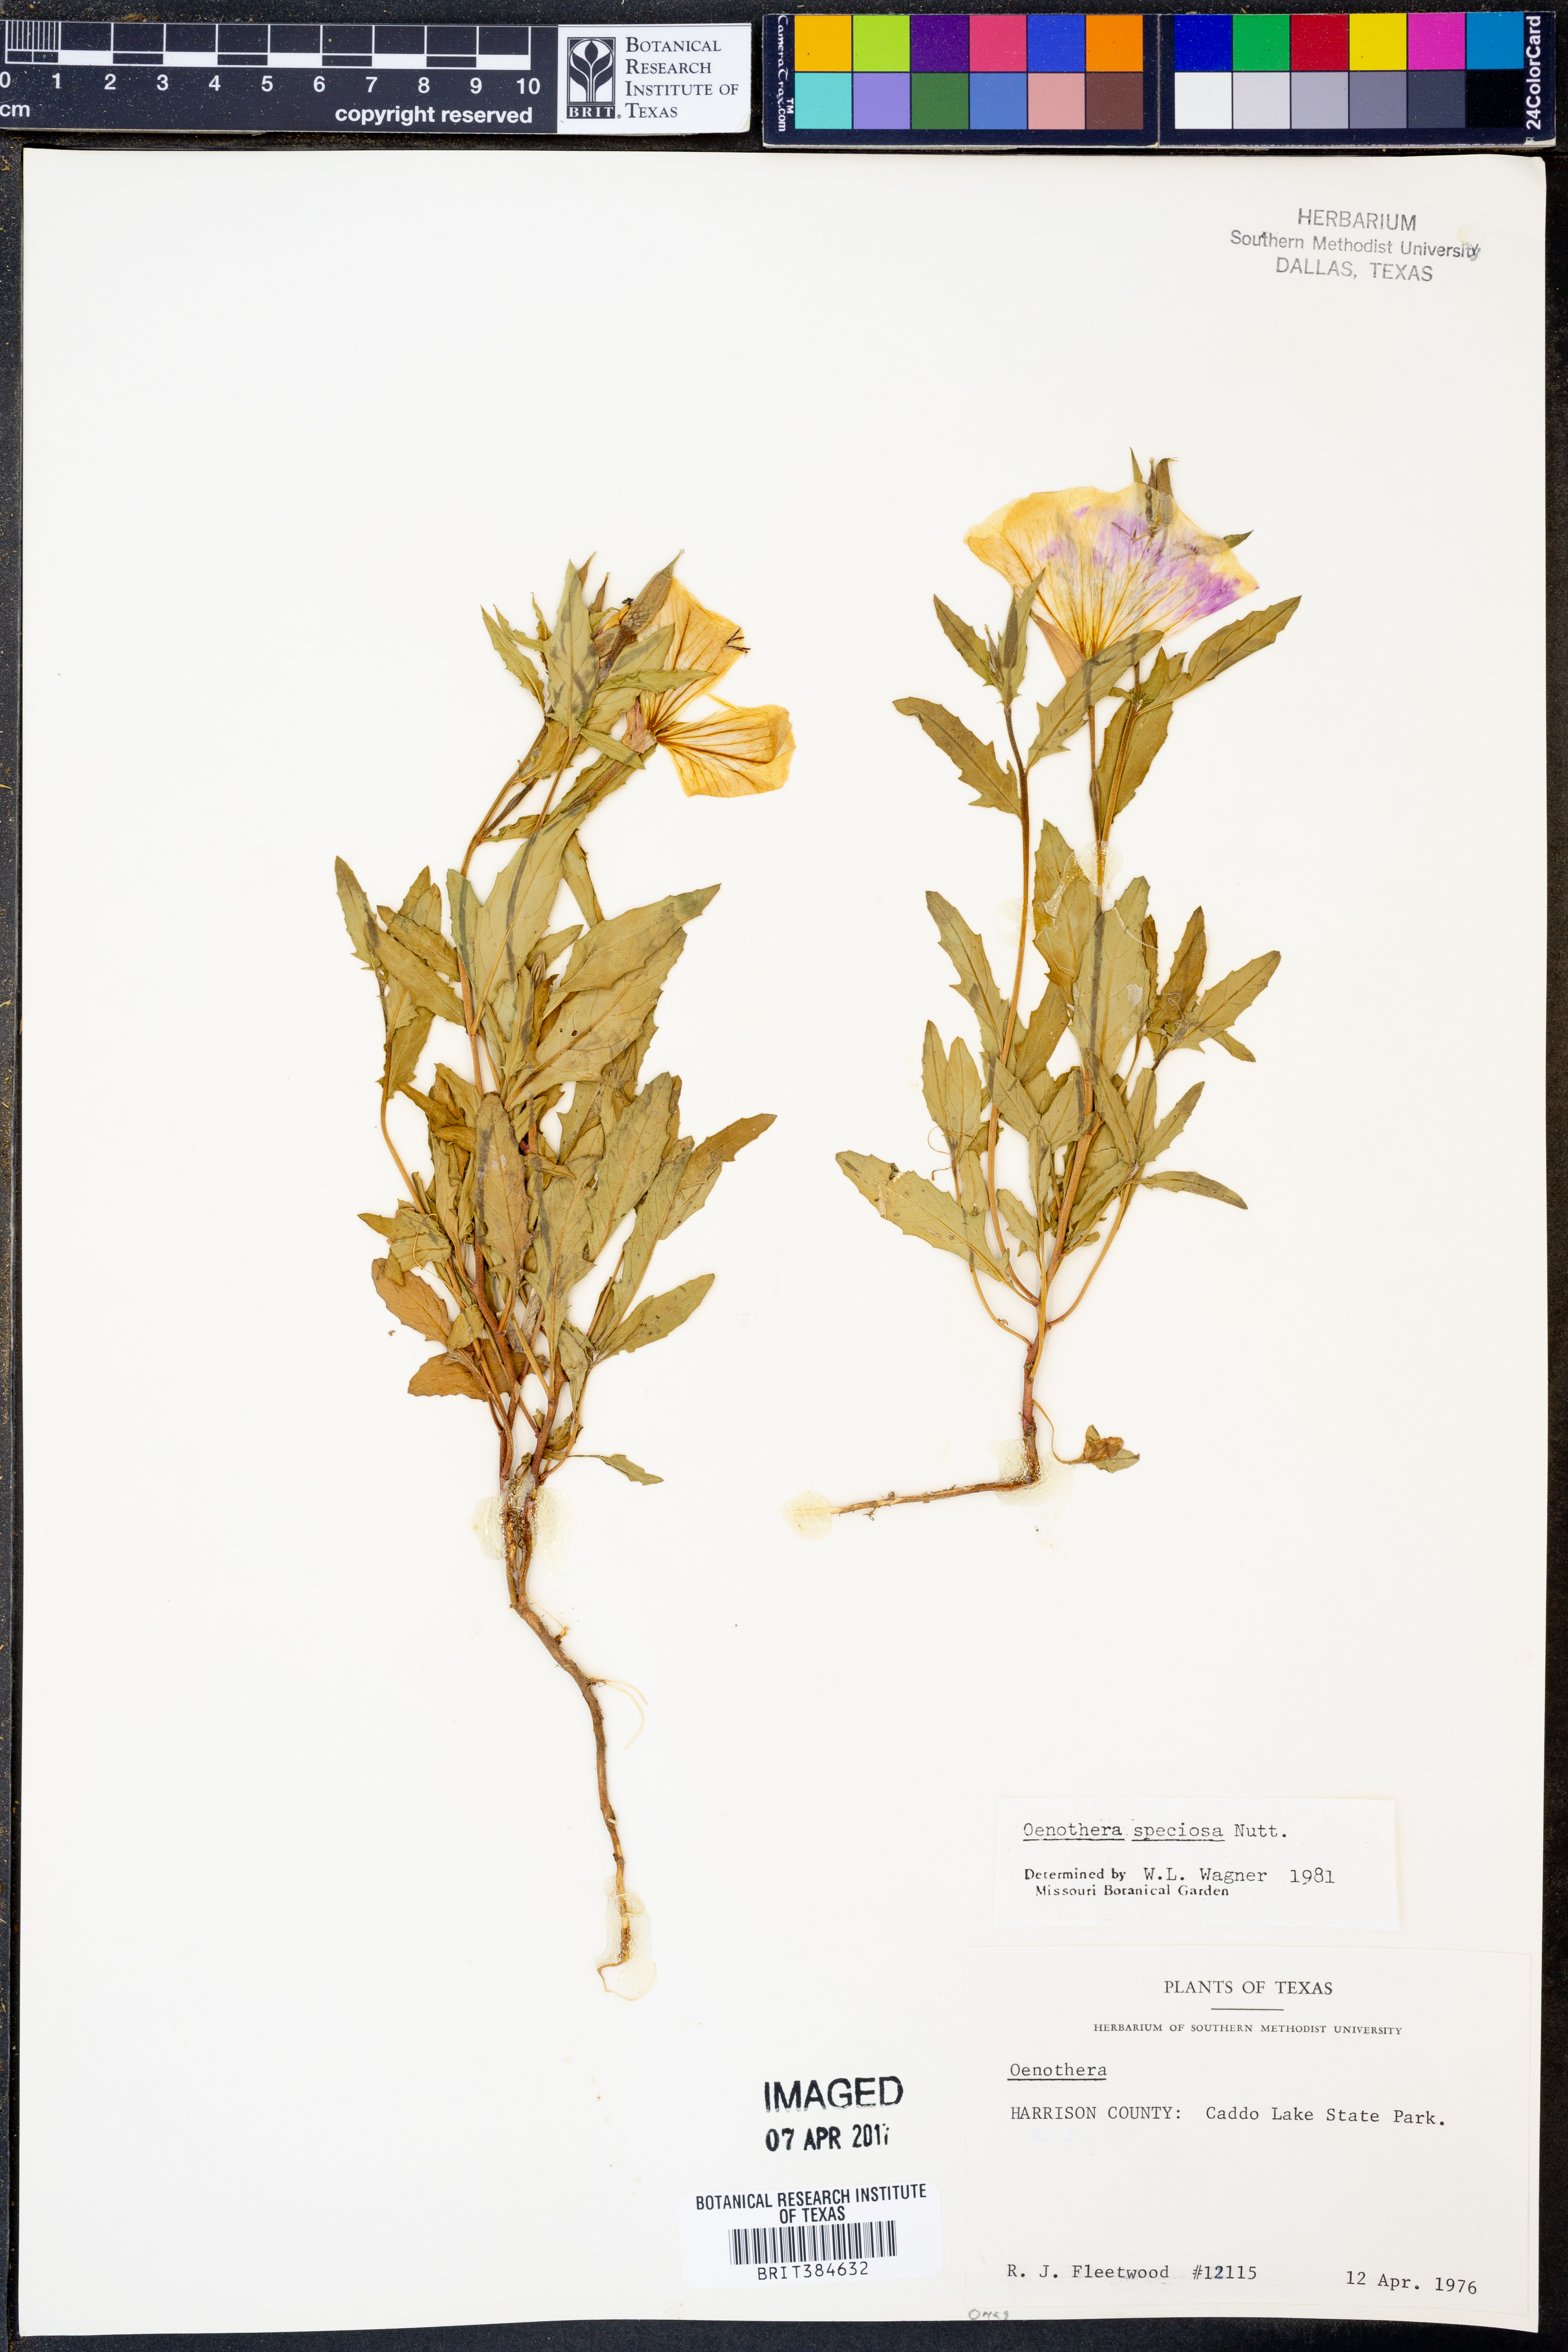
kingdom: Plantae
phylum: Tracheophyta
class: Magnoliopsida
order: Myrtales
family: Onagraceae
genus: Oenothera
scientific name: Oenothera speciosa
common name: White evening-primrose
